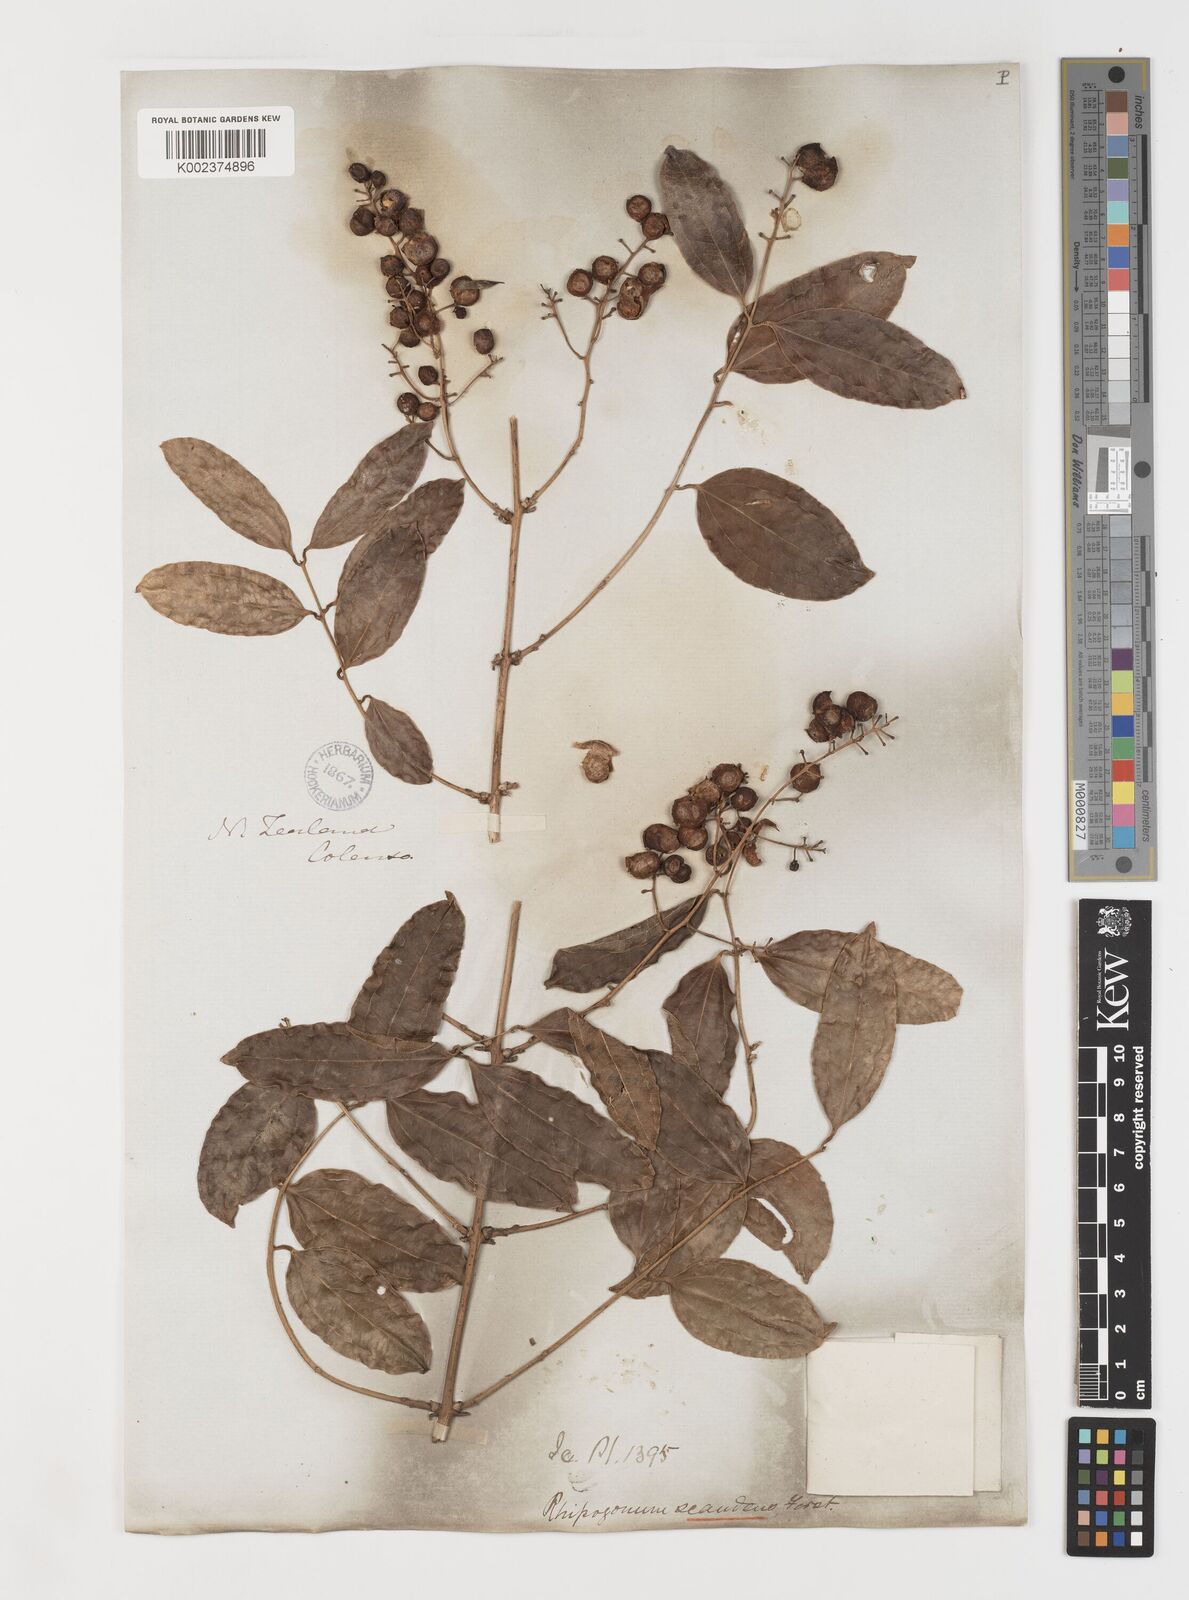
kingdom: Plantae
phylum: Tracheophyta
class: Liliopsida
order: Liliales
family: Ripogonaceae
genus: Ripogonum
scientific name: Ripogonum scandens
